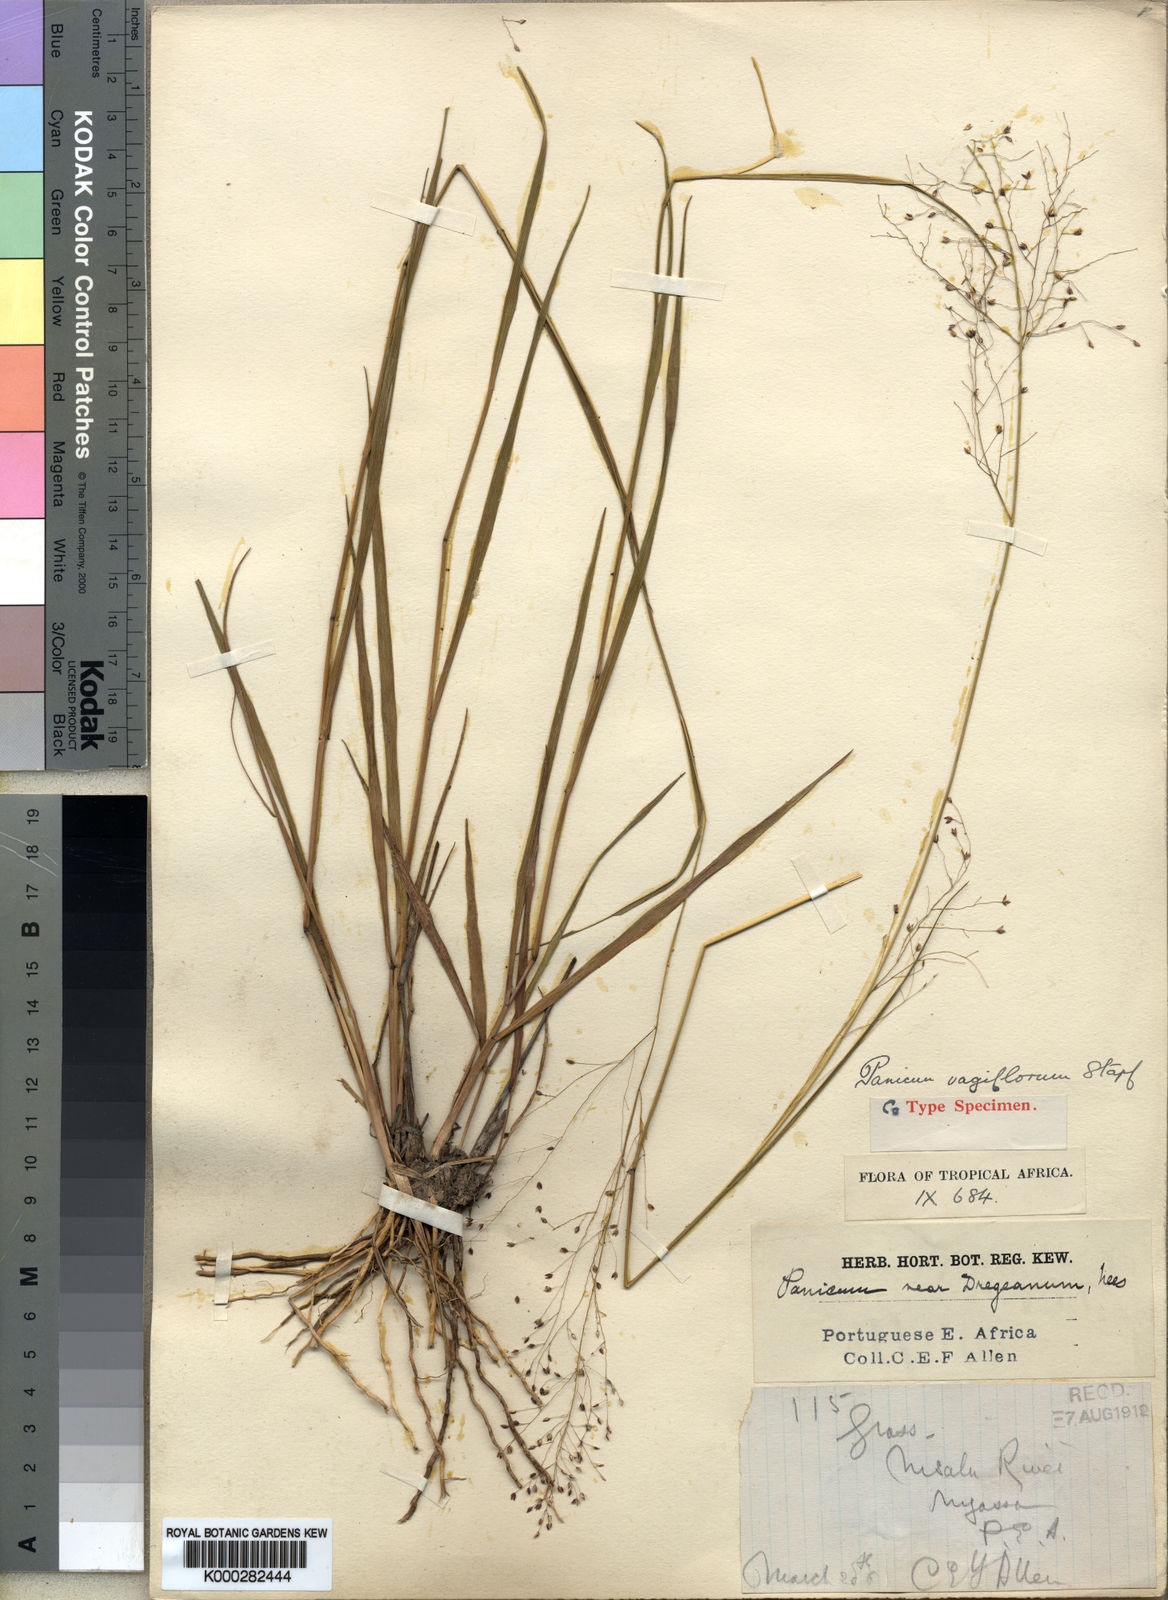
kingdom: Plantae
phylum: Tracheophyta
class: Liliopsida
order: Poales
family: Poaceae
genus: Panicum
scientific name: Panicum graciliflorum
